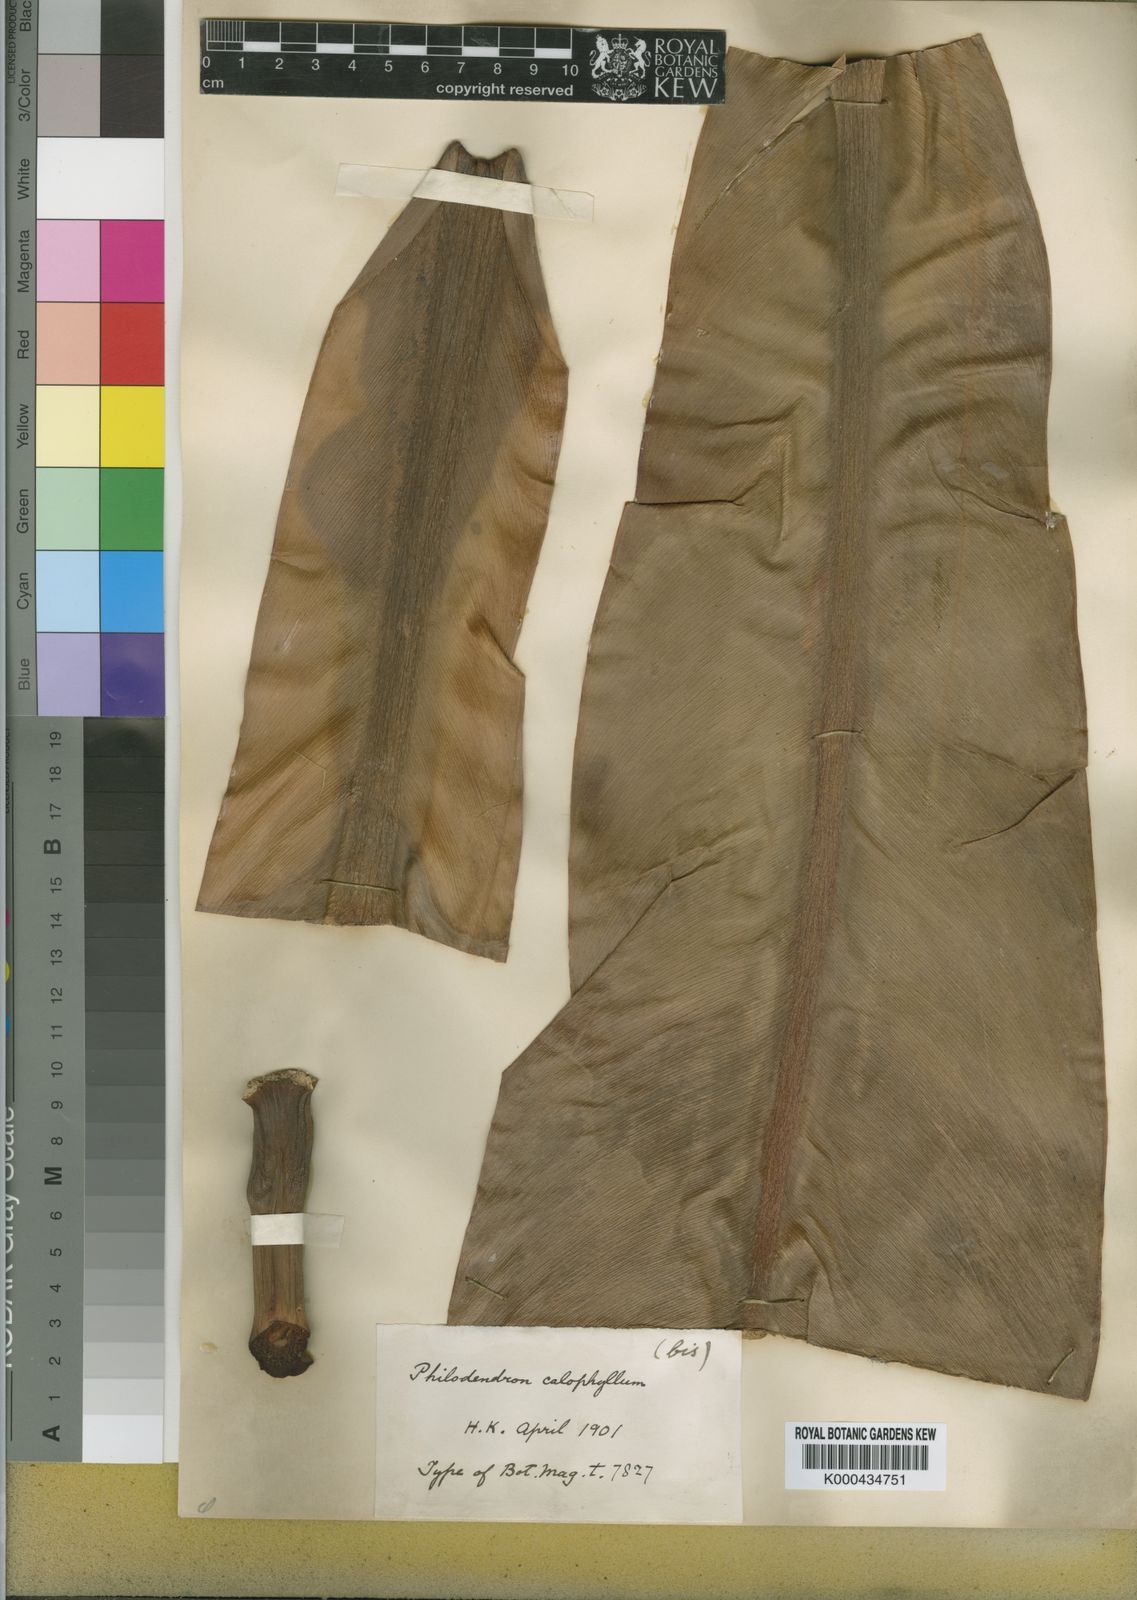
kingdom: Plantae
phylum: Tracheophyta
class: Liliopsida
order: Alismatales
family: Araceae
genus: Philodendron
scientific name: Philodendron insigne
